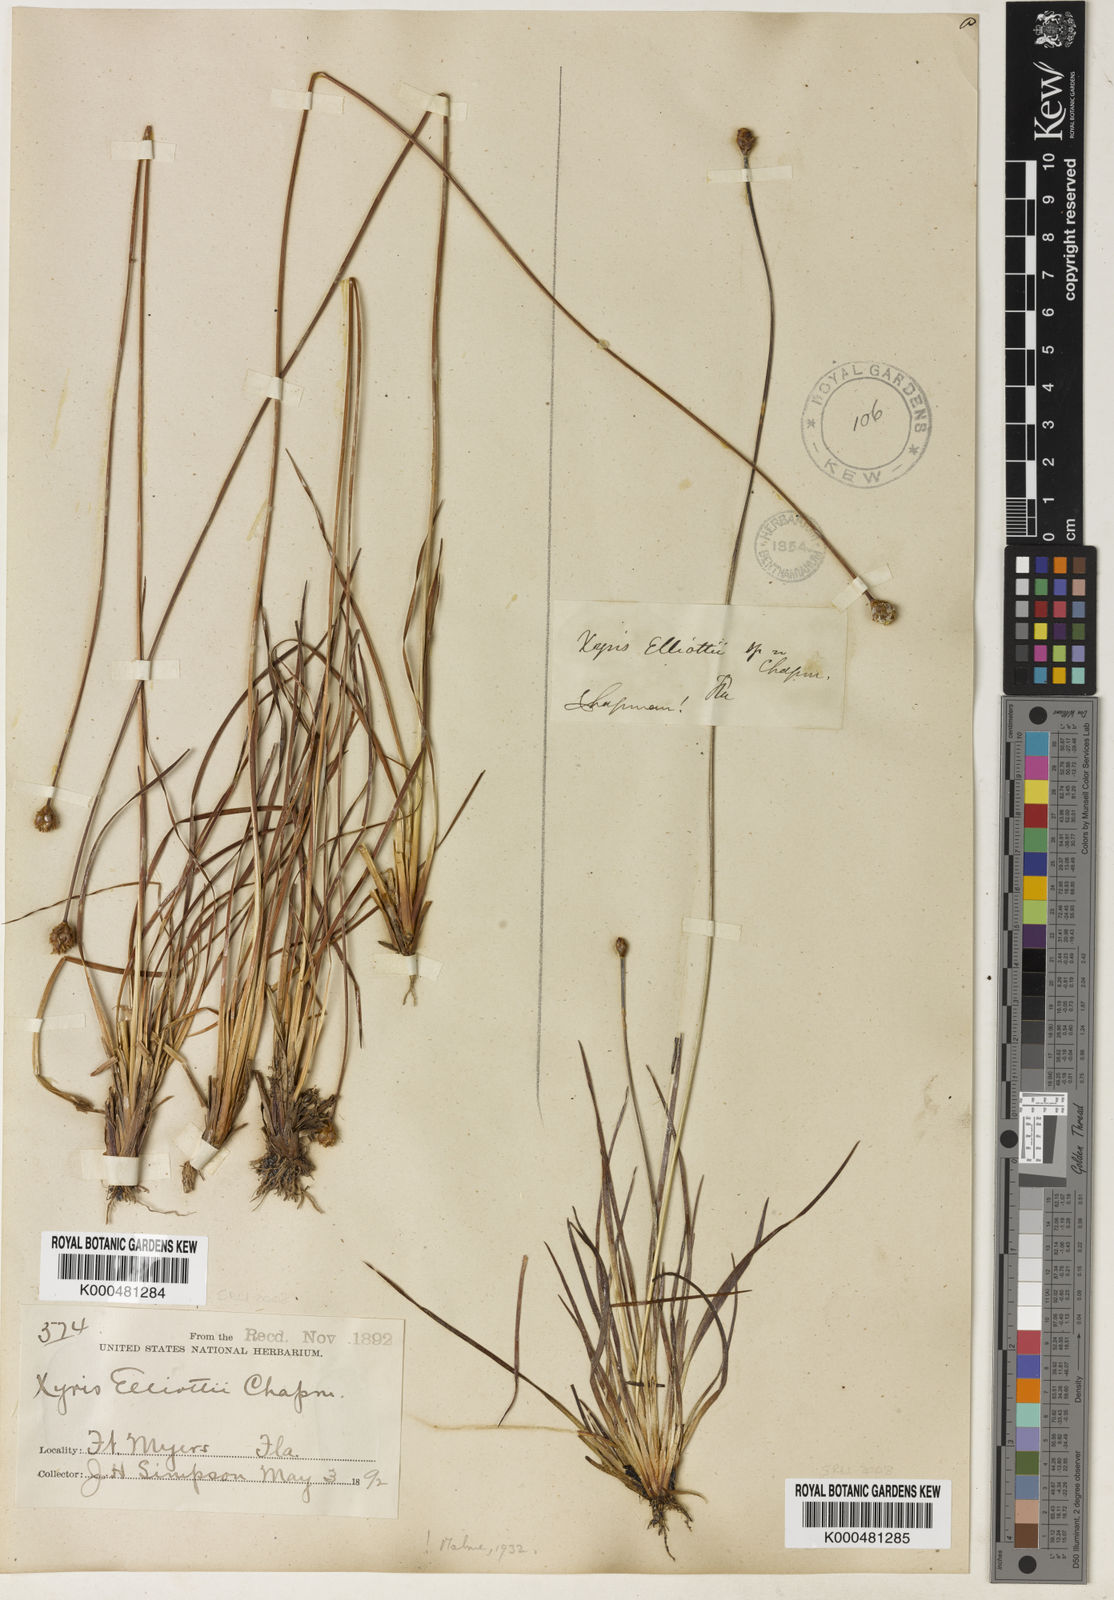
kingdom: Plantae
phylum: Tracheophyta
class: Liliopsida
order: Poales
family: Xyridaceae
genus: Xyris
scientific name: Xyris elliottii
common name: Elliot's yelloweyed grass
